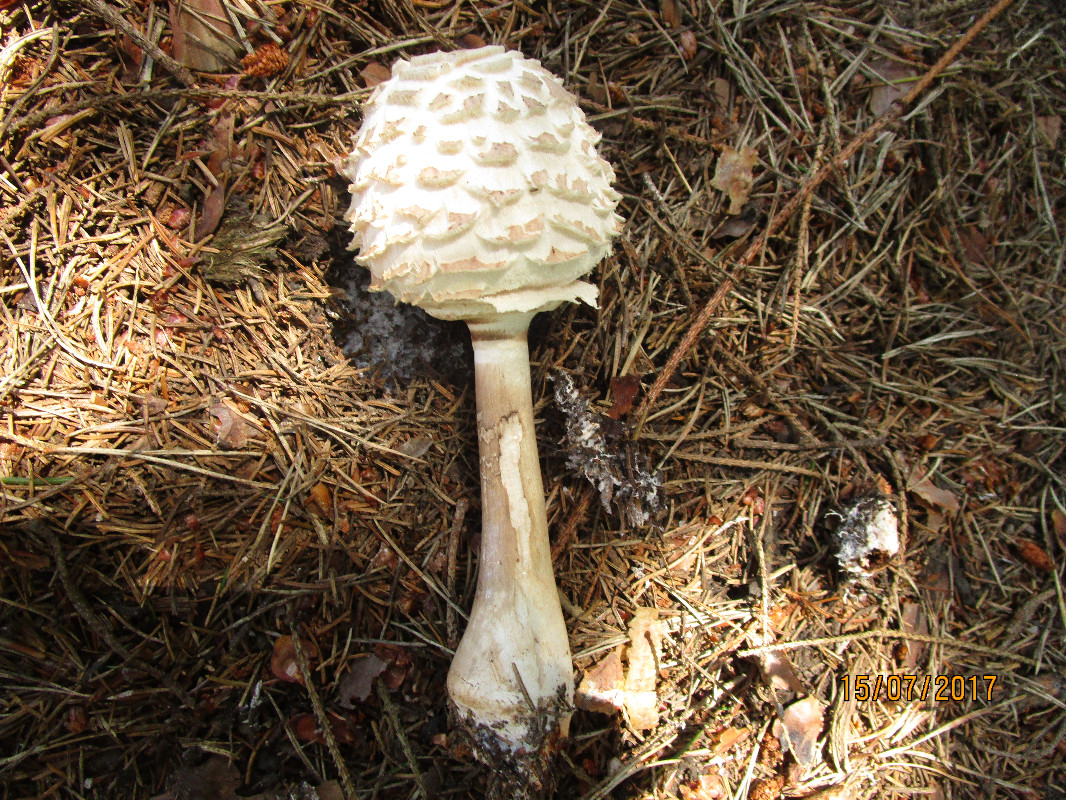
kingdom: Fungi
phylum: Basidiomycota
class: Agaricomycetes
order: Agaricales
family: Agaricaceae
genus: Chlorophyllum
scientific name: Chlorophyllum olivieri
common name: almindelig rabarberhat
